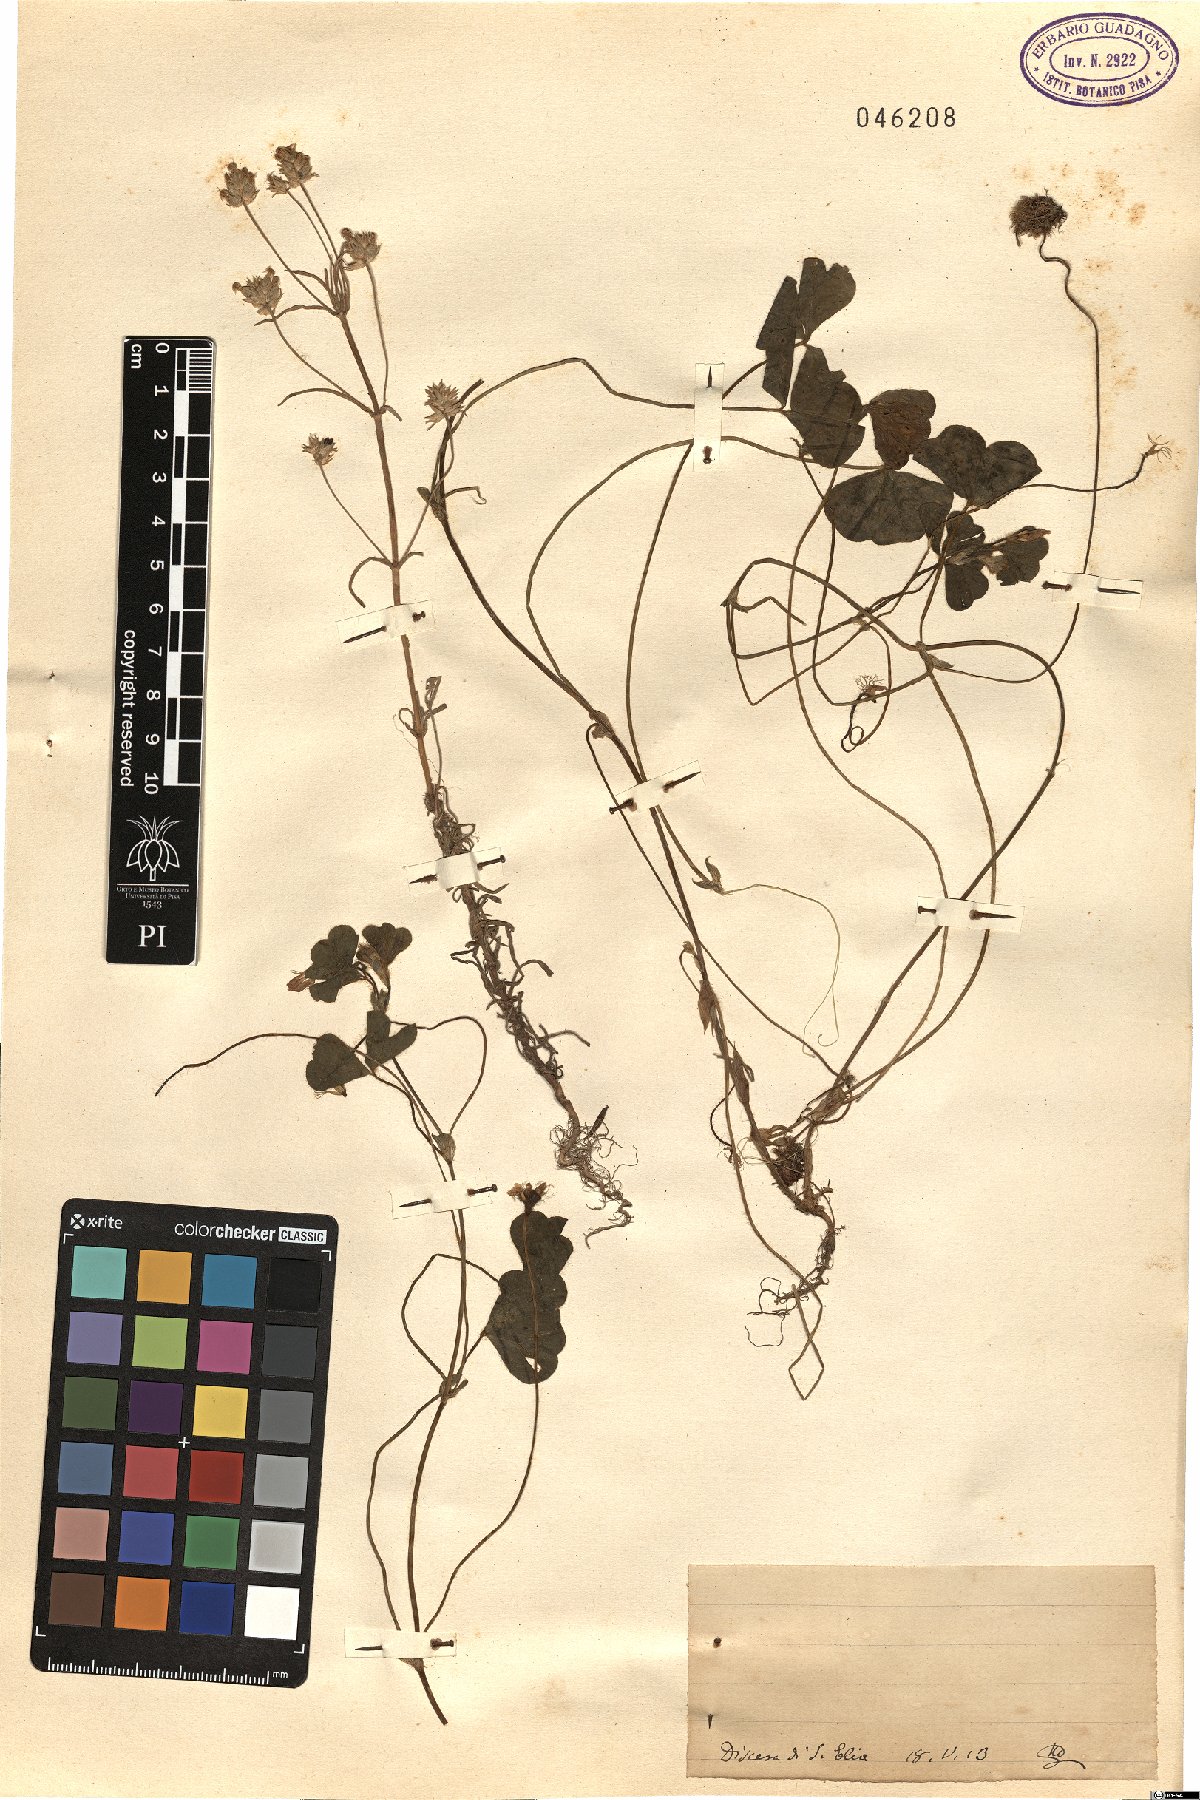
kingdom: Plantae
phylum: Tracheophyta
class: Magnoliopsida
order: Fabales
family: Fabaceae
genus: Trifolium
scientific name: Trifolium
